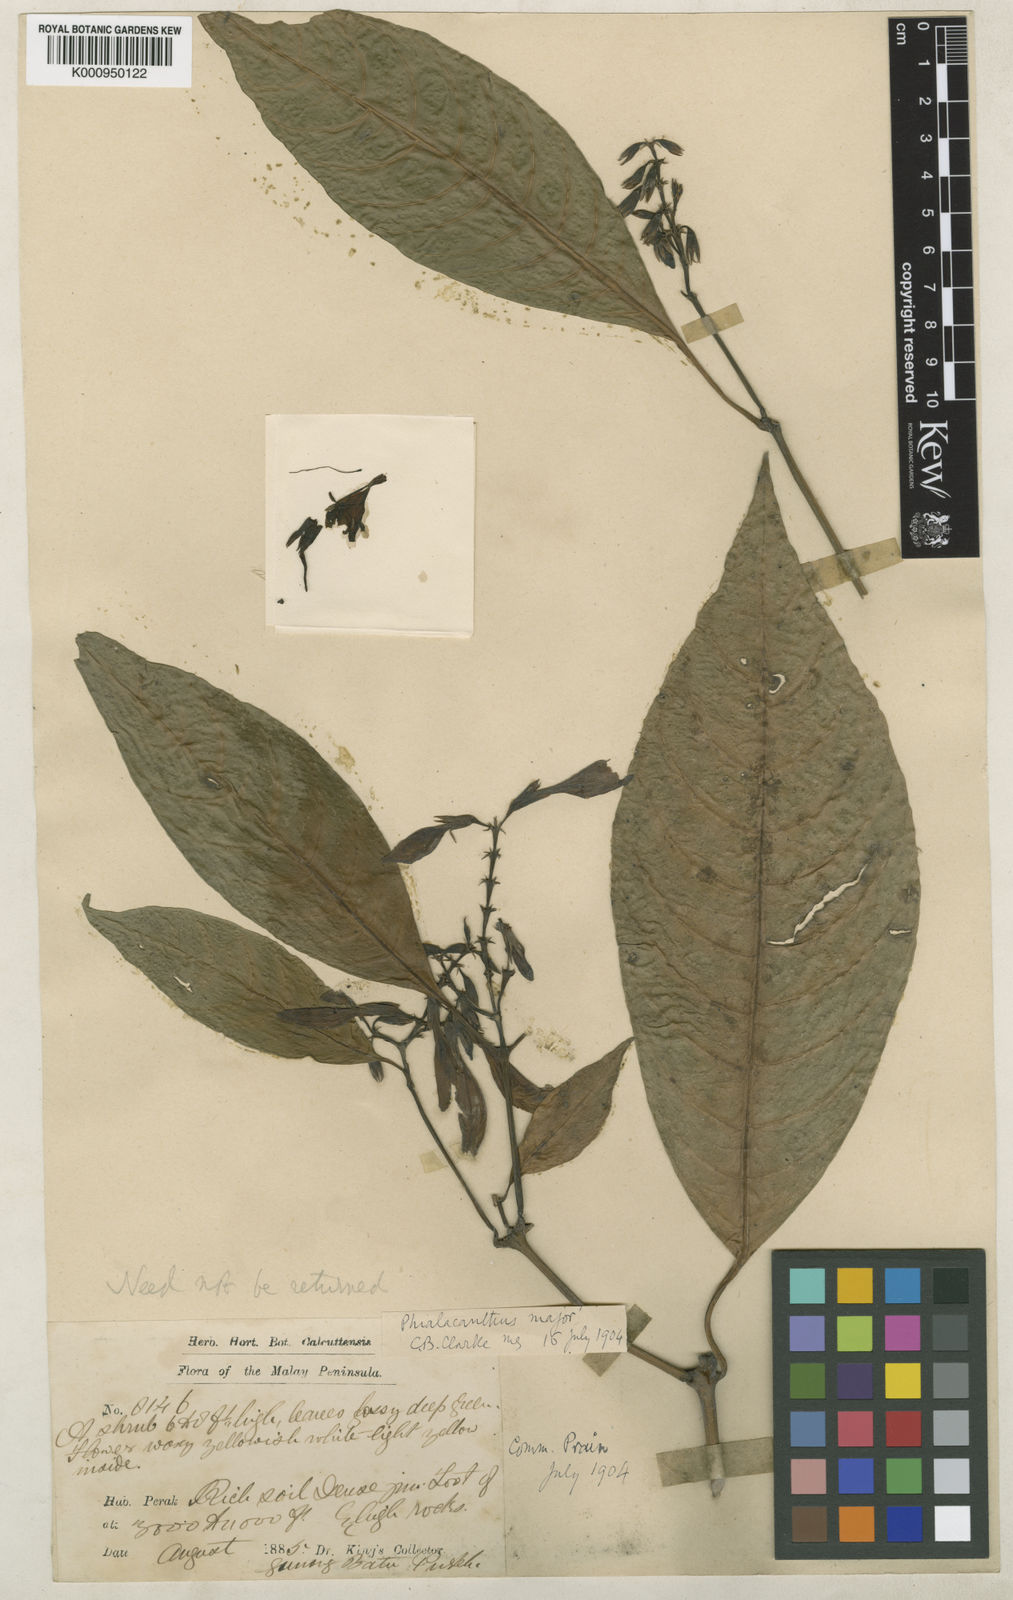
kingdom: Plantae
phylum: Tracheophyta
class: Magnoliopsida
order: Lamiales
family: Acanthaceae
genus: Phialacanthus
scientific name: Phialacanthus major
